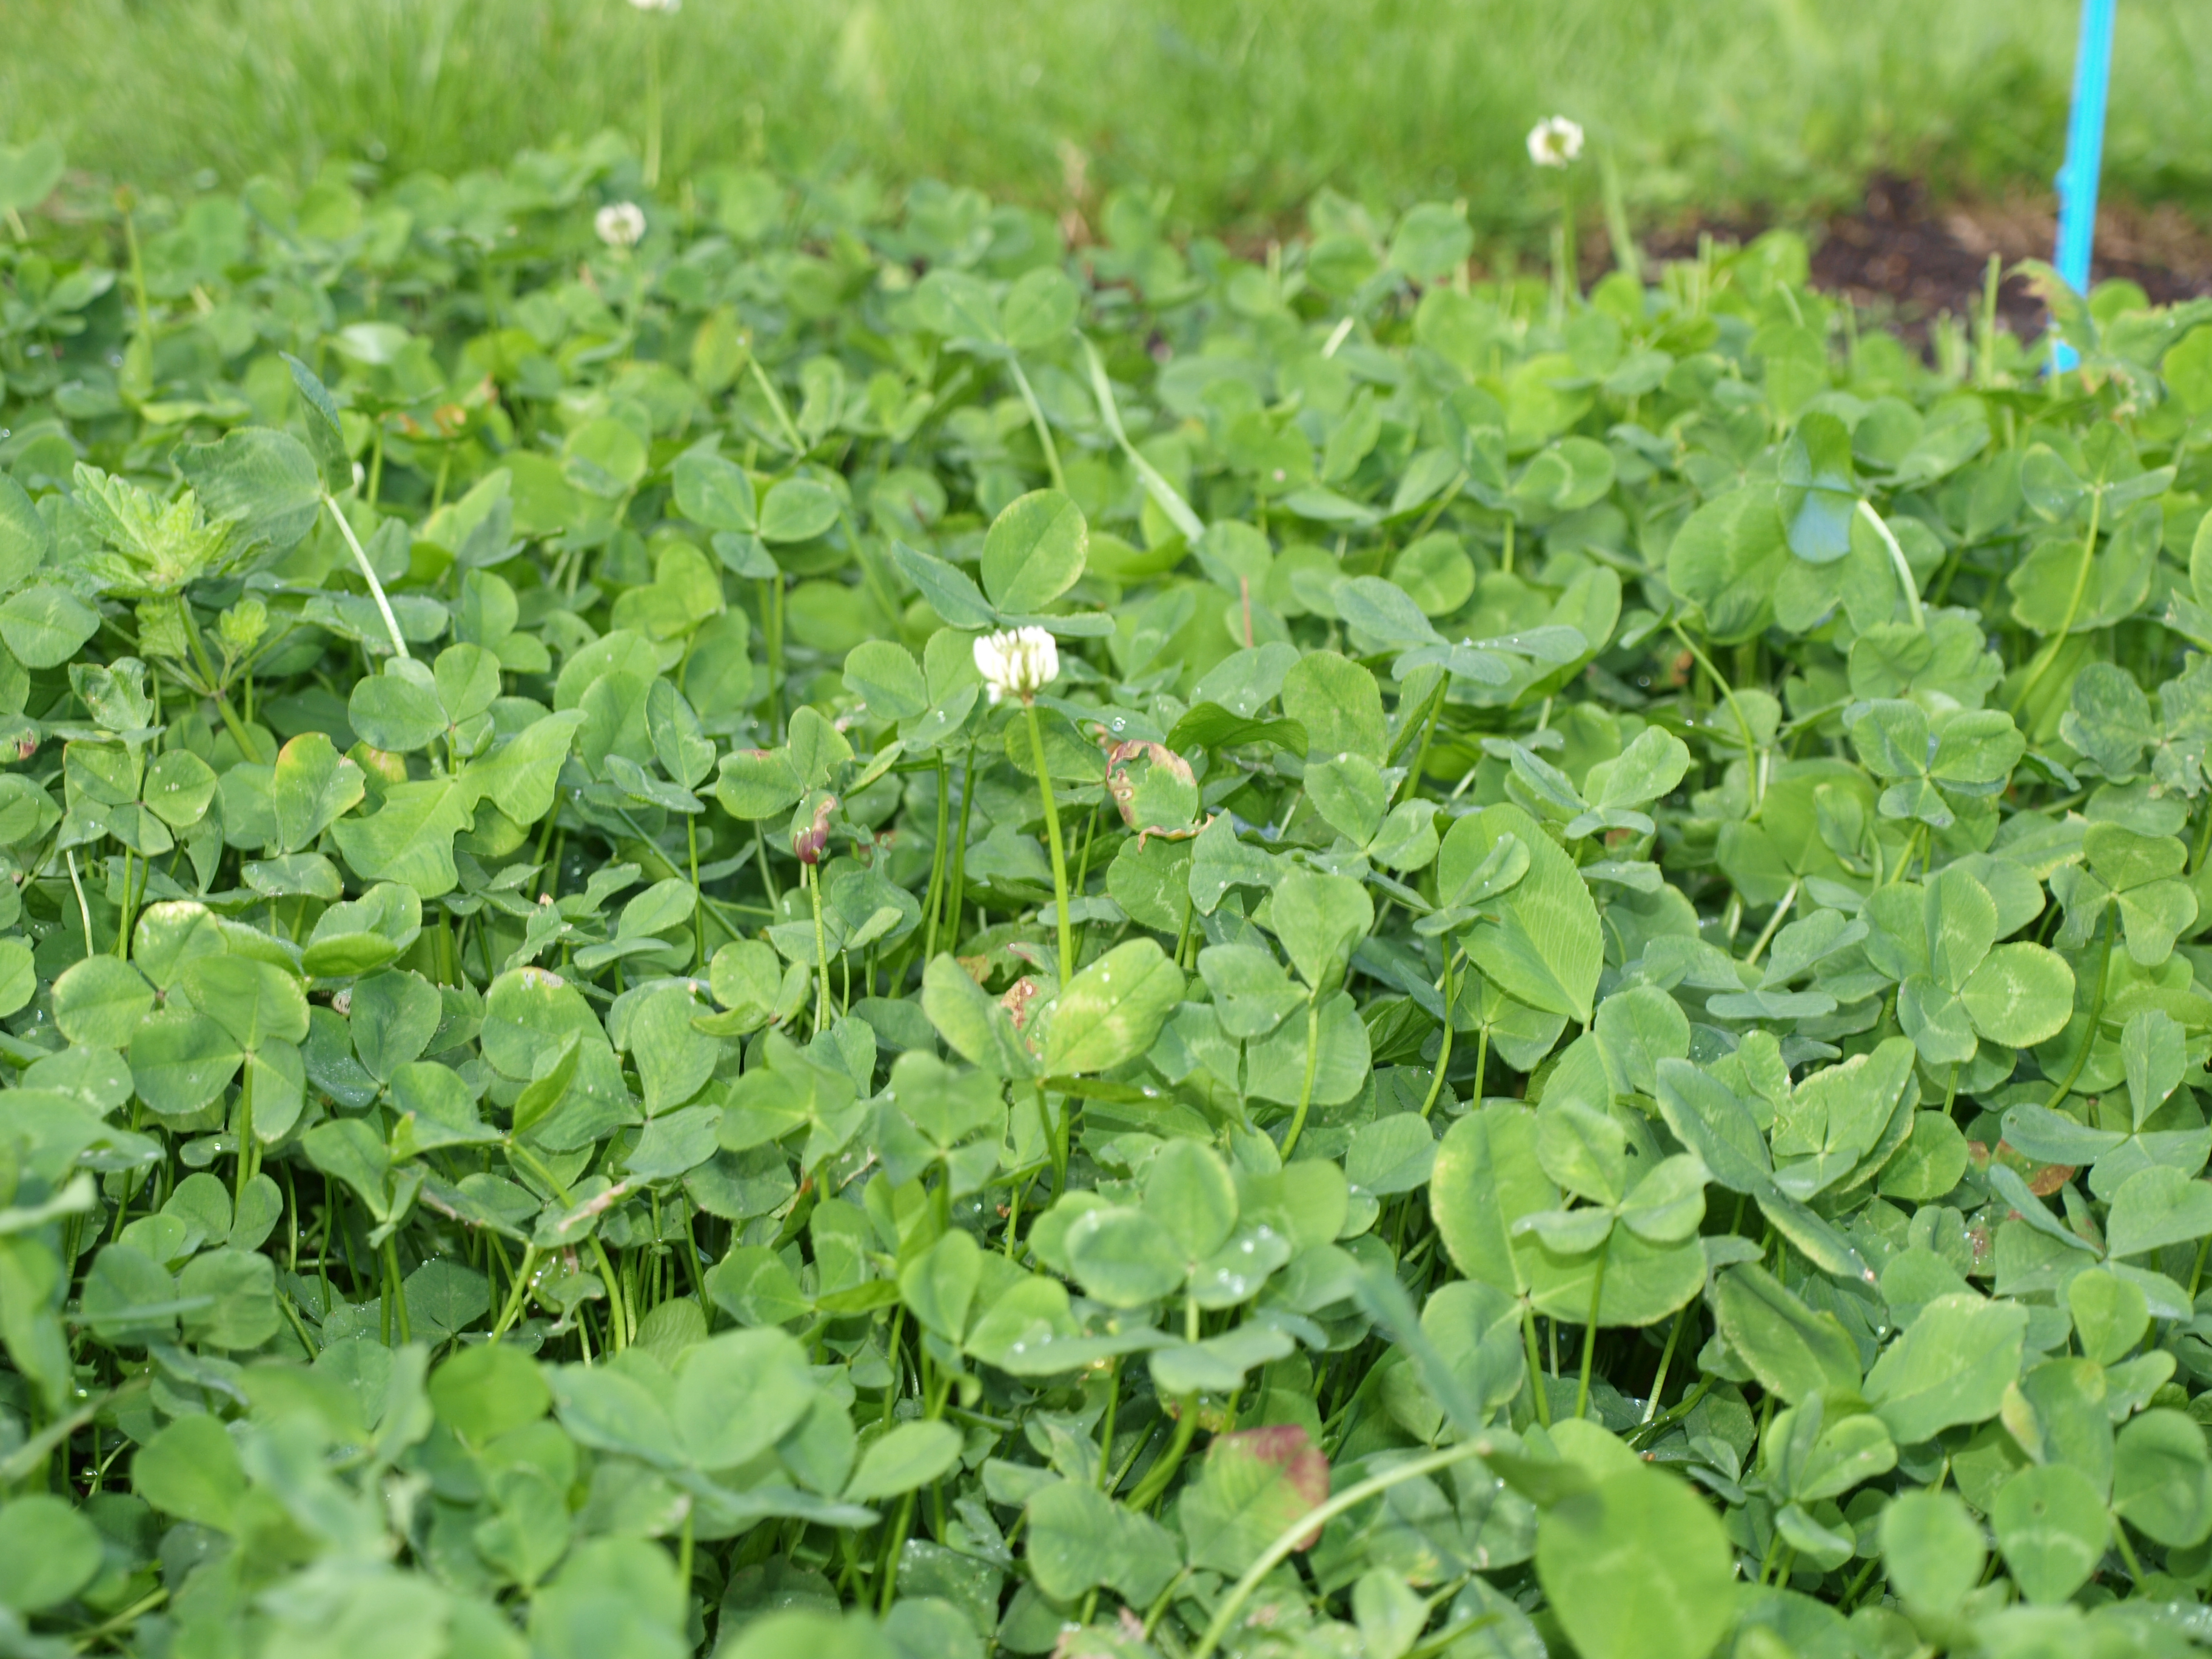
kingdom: Plantae
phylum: Tracheophyta
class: Magnoliopsida
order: Fabales
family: Fabaceae
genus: Trifolium
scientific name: Trifolium repens
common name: White clover
